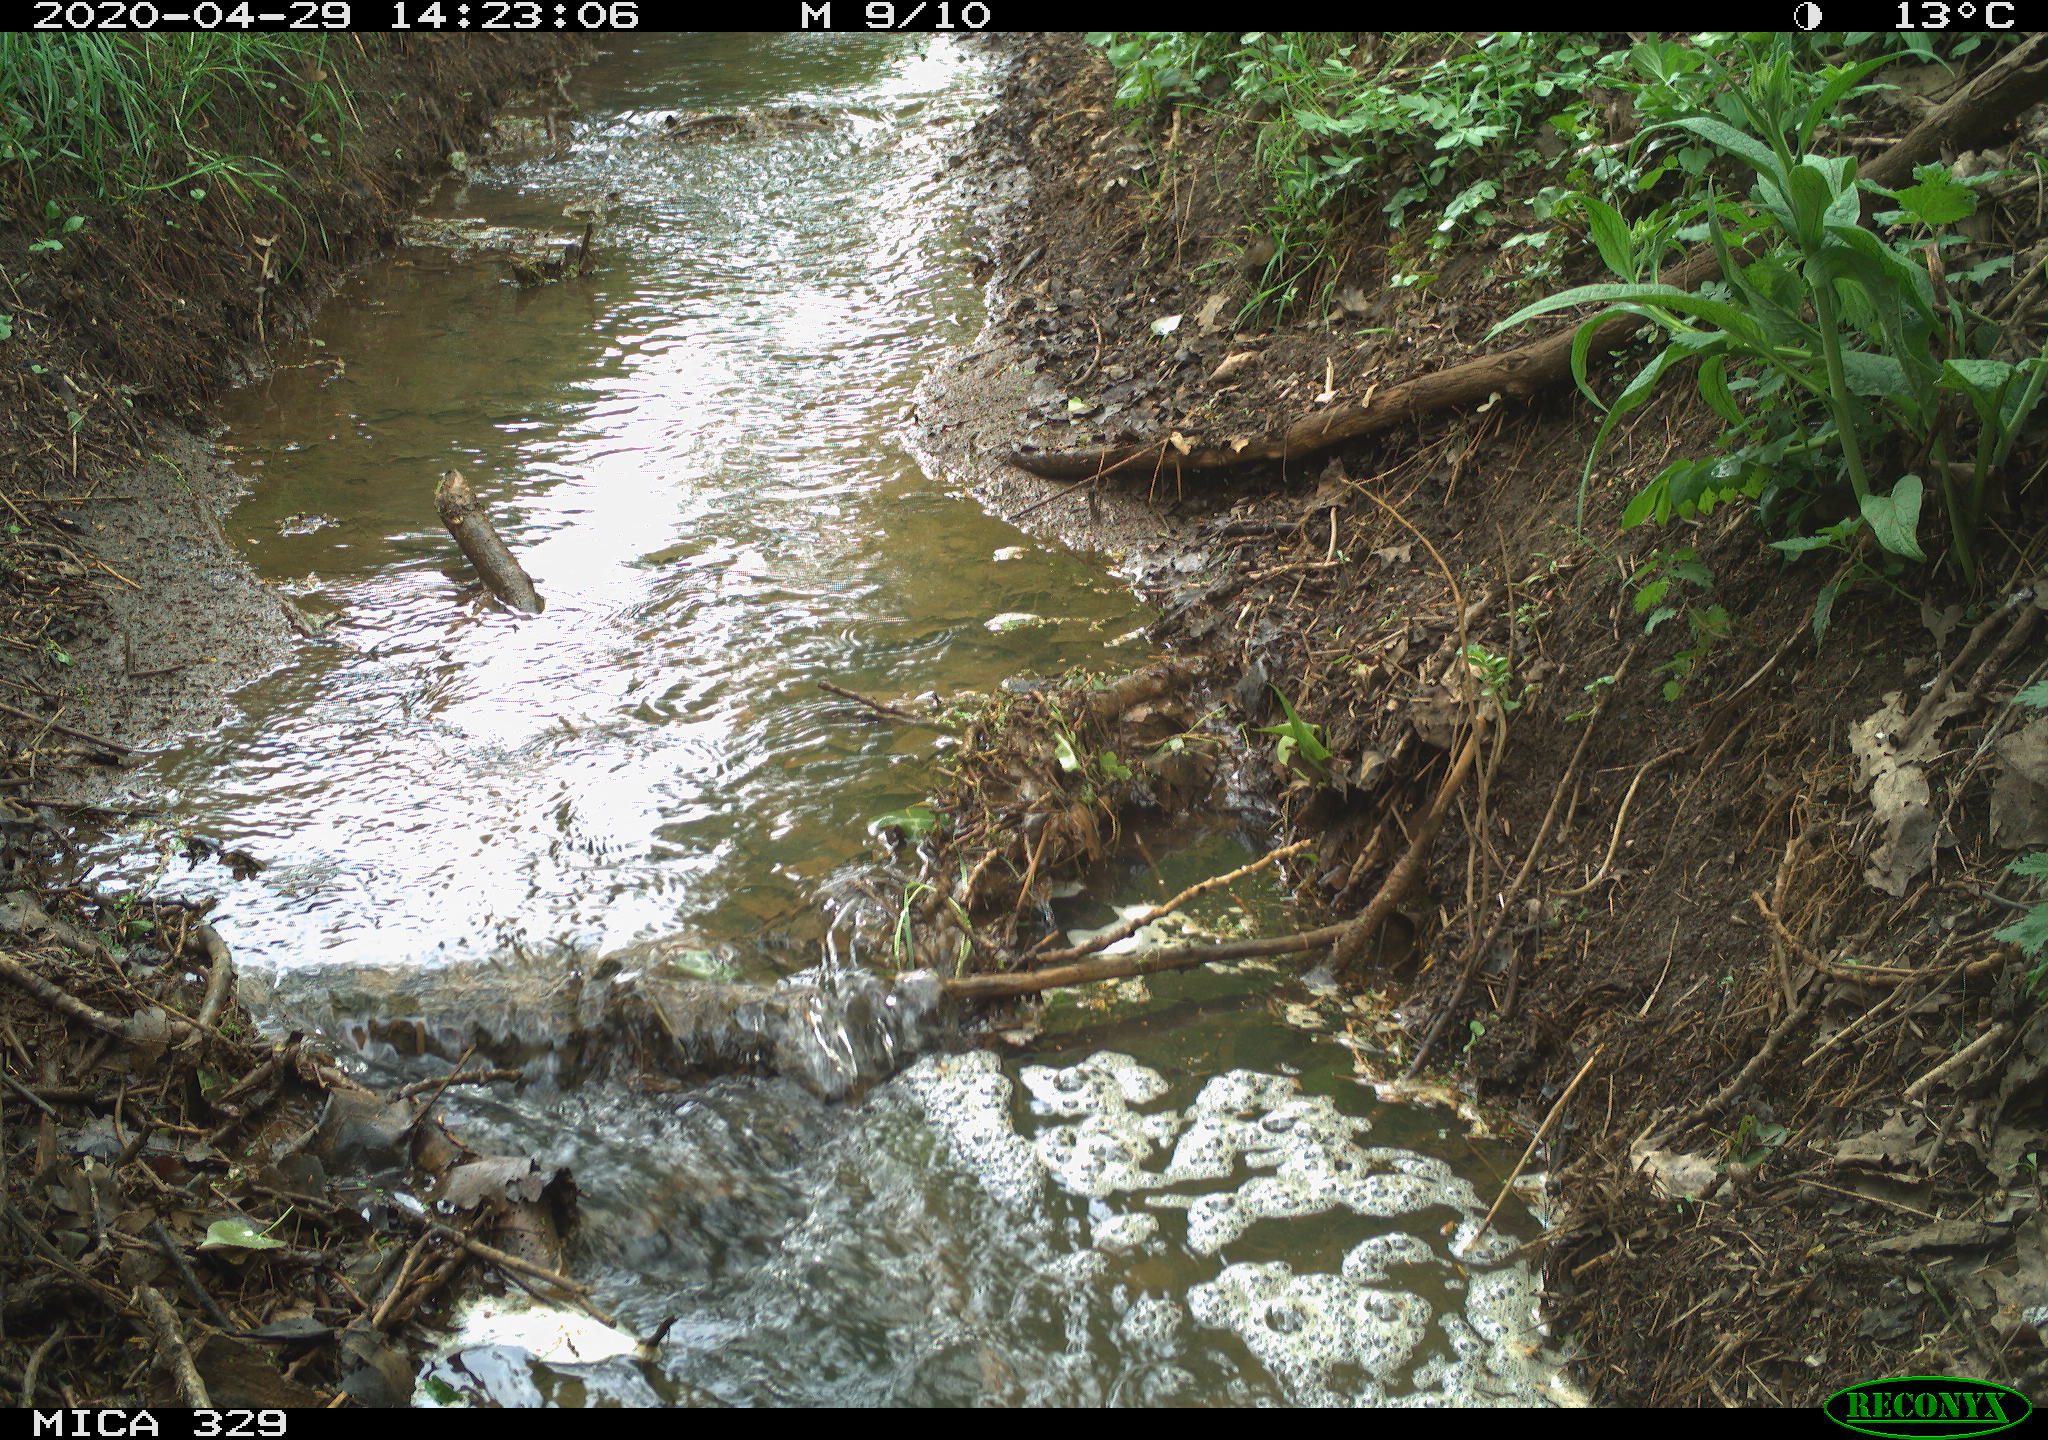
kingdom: Animalia
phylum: Chordata
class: Aves
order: Coraciiformes
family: Alcedinidae
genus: Alcedo
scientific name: Alcedo atthis
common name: Common kingfisher
